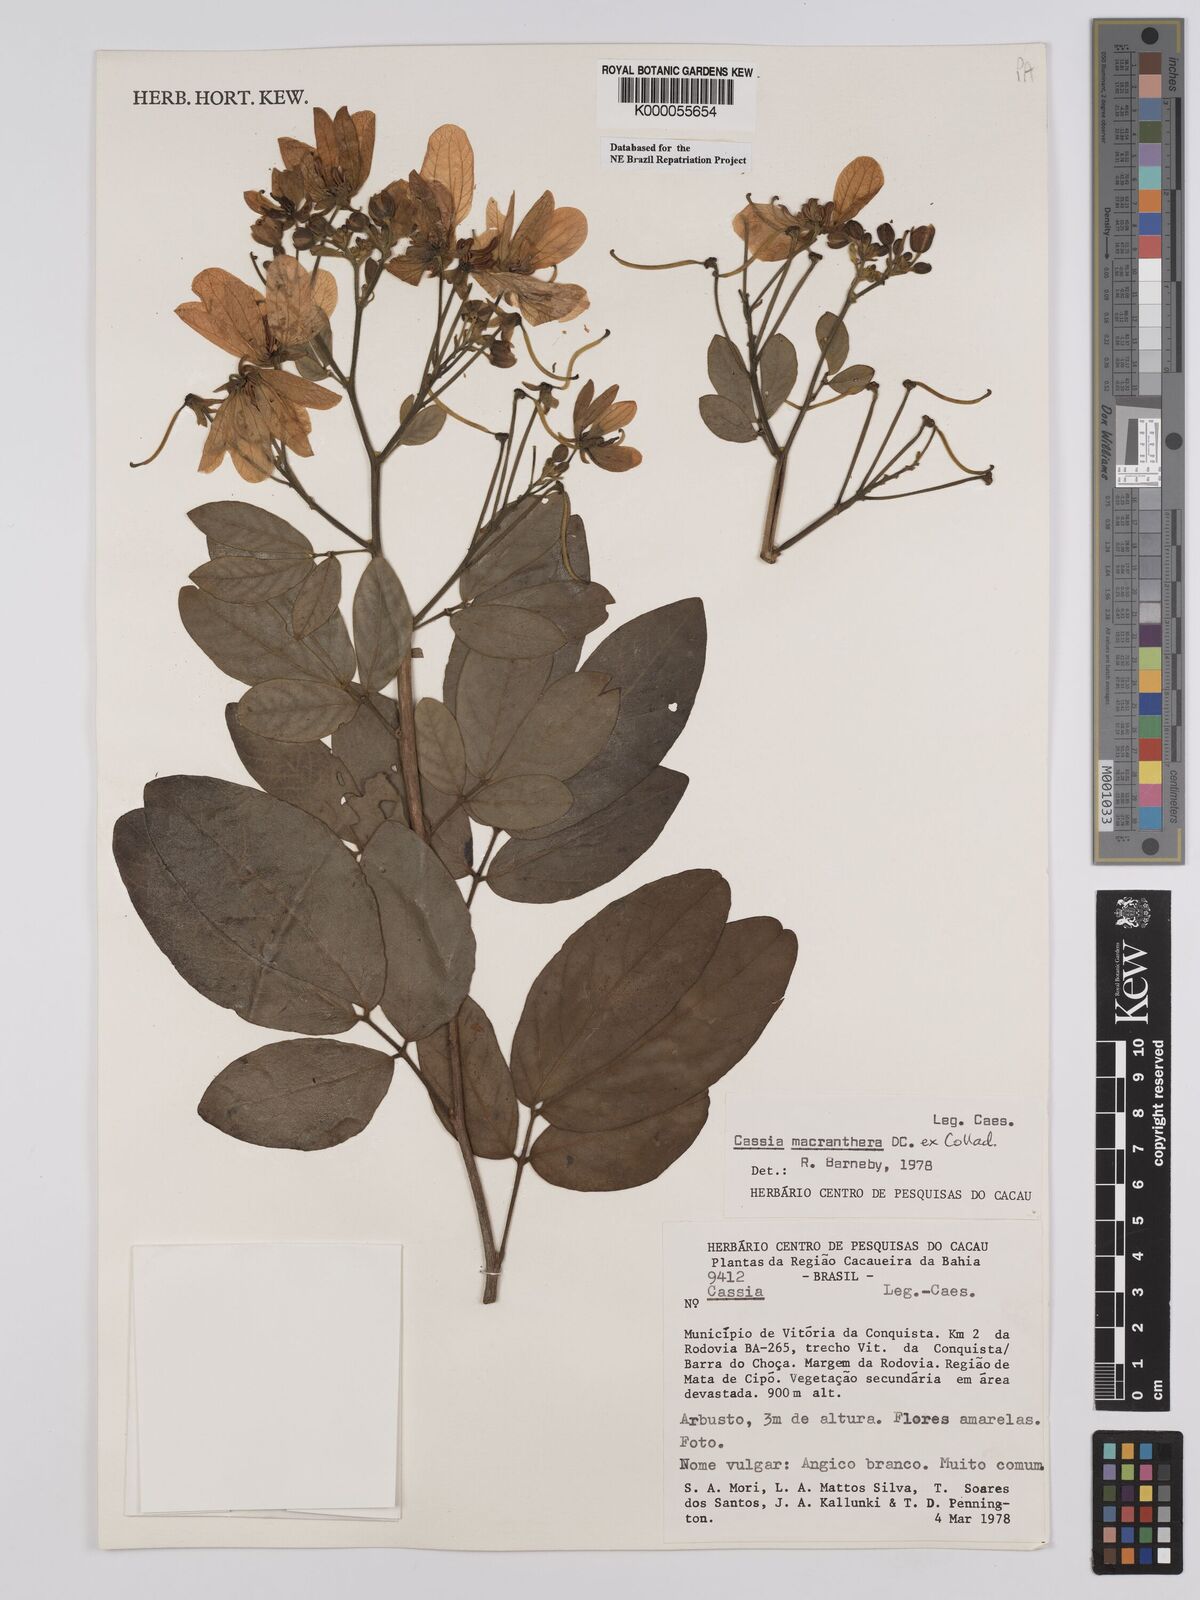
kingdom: Plantae
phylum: Tracheophyta
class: Magnoliopsida
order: Fabales
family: Fabaceae
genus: Senna
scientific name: Senna macranthera
